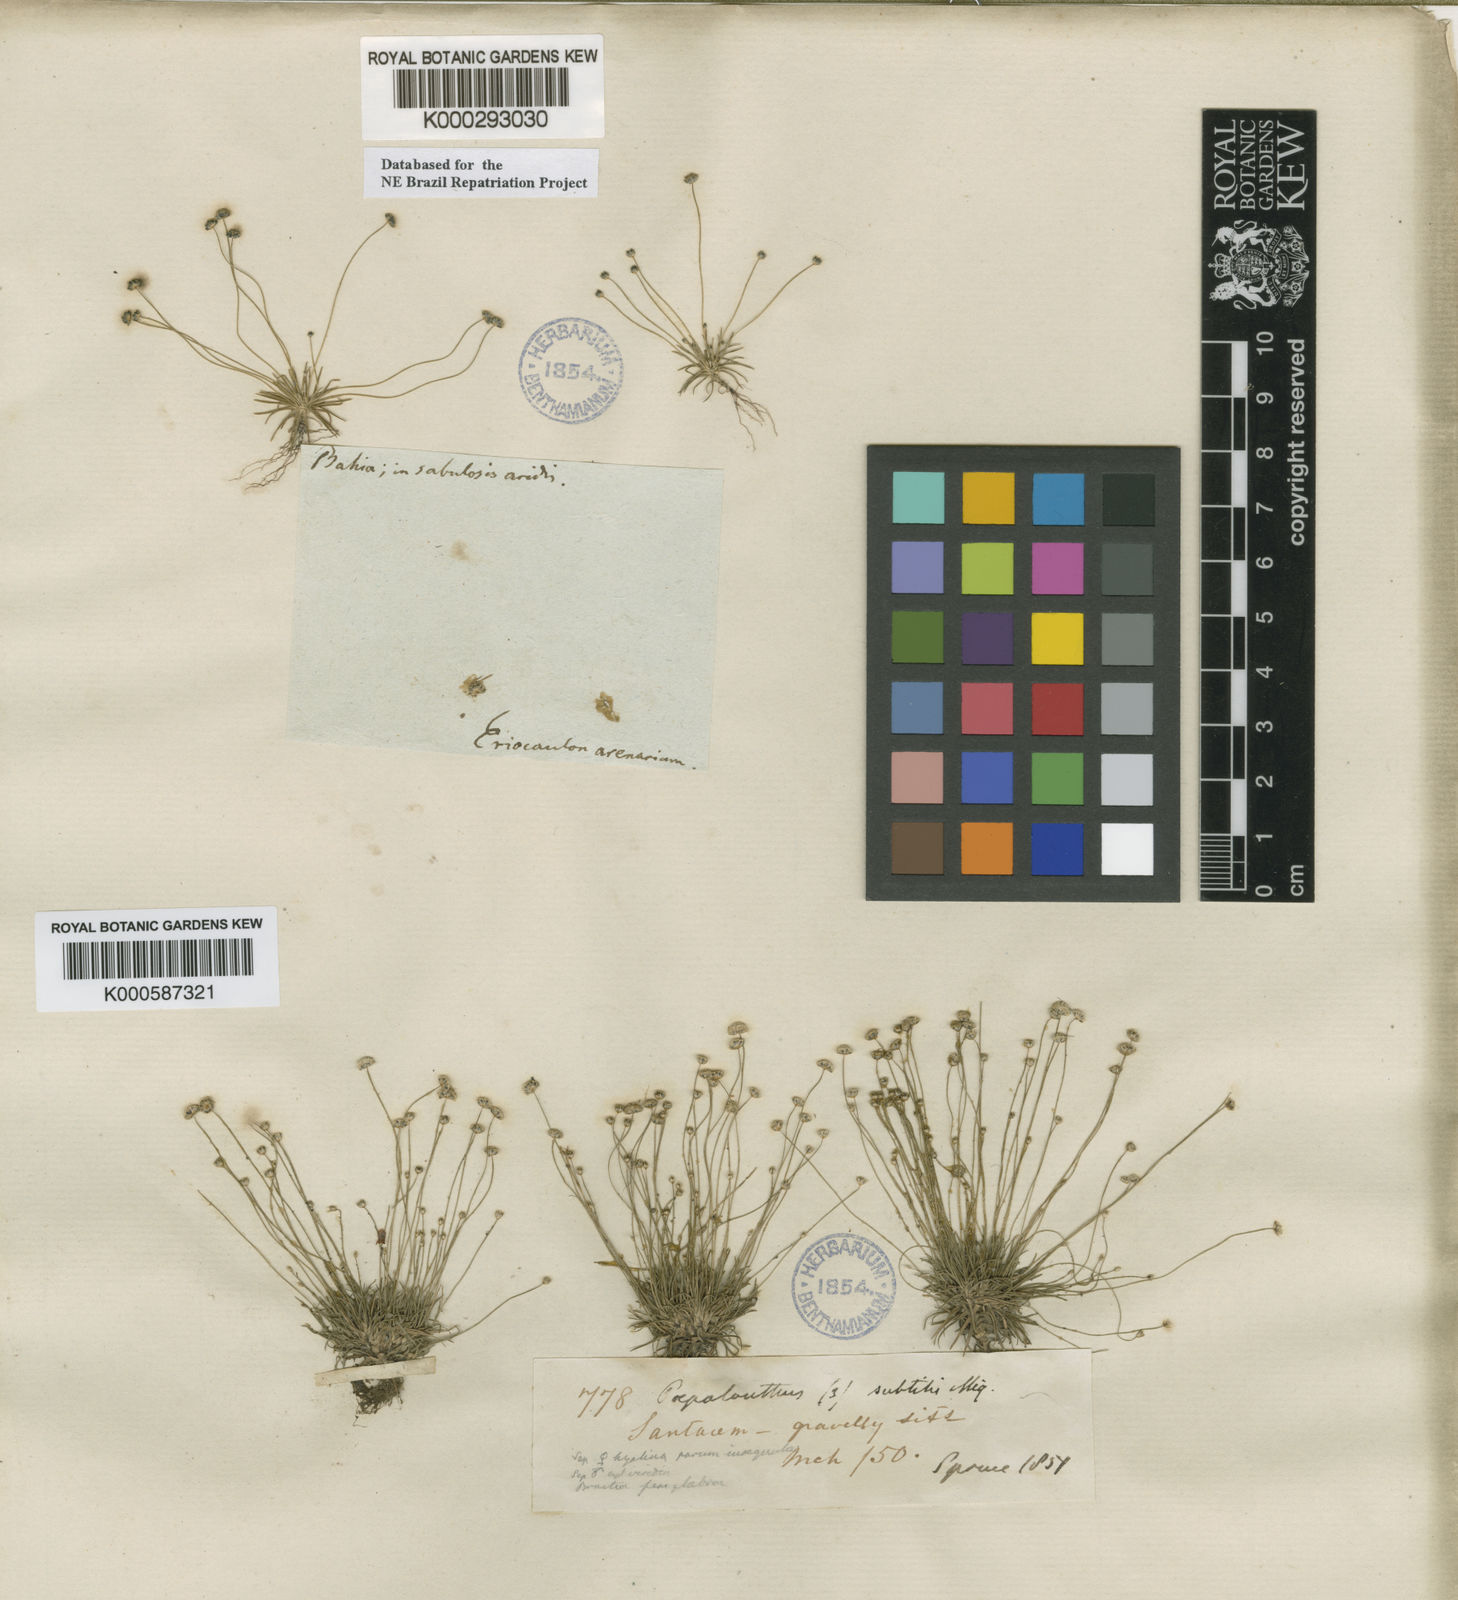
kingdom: Plantae
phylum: Tracheophyta
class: Liliopsida
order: Poales
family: Eriocaulaceae
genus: Paepalanthus
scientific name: Paepalanthus subtilis
